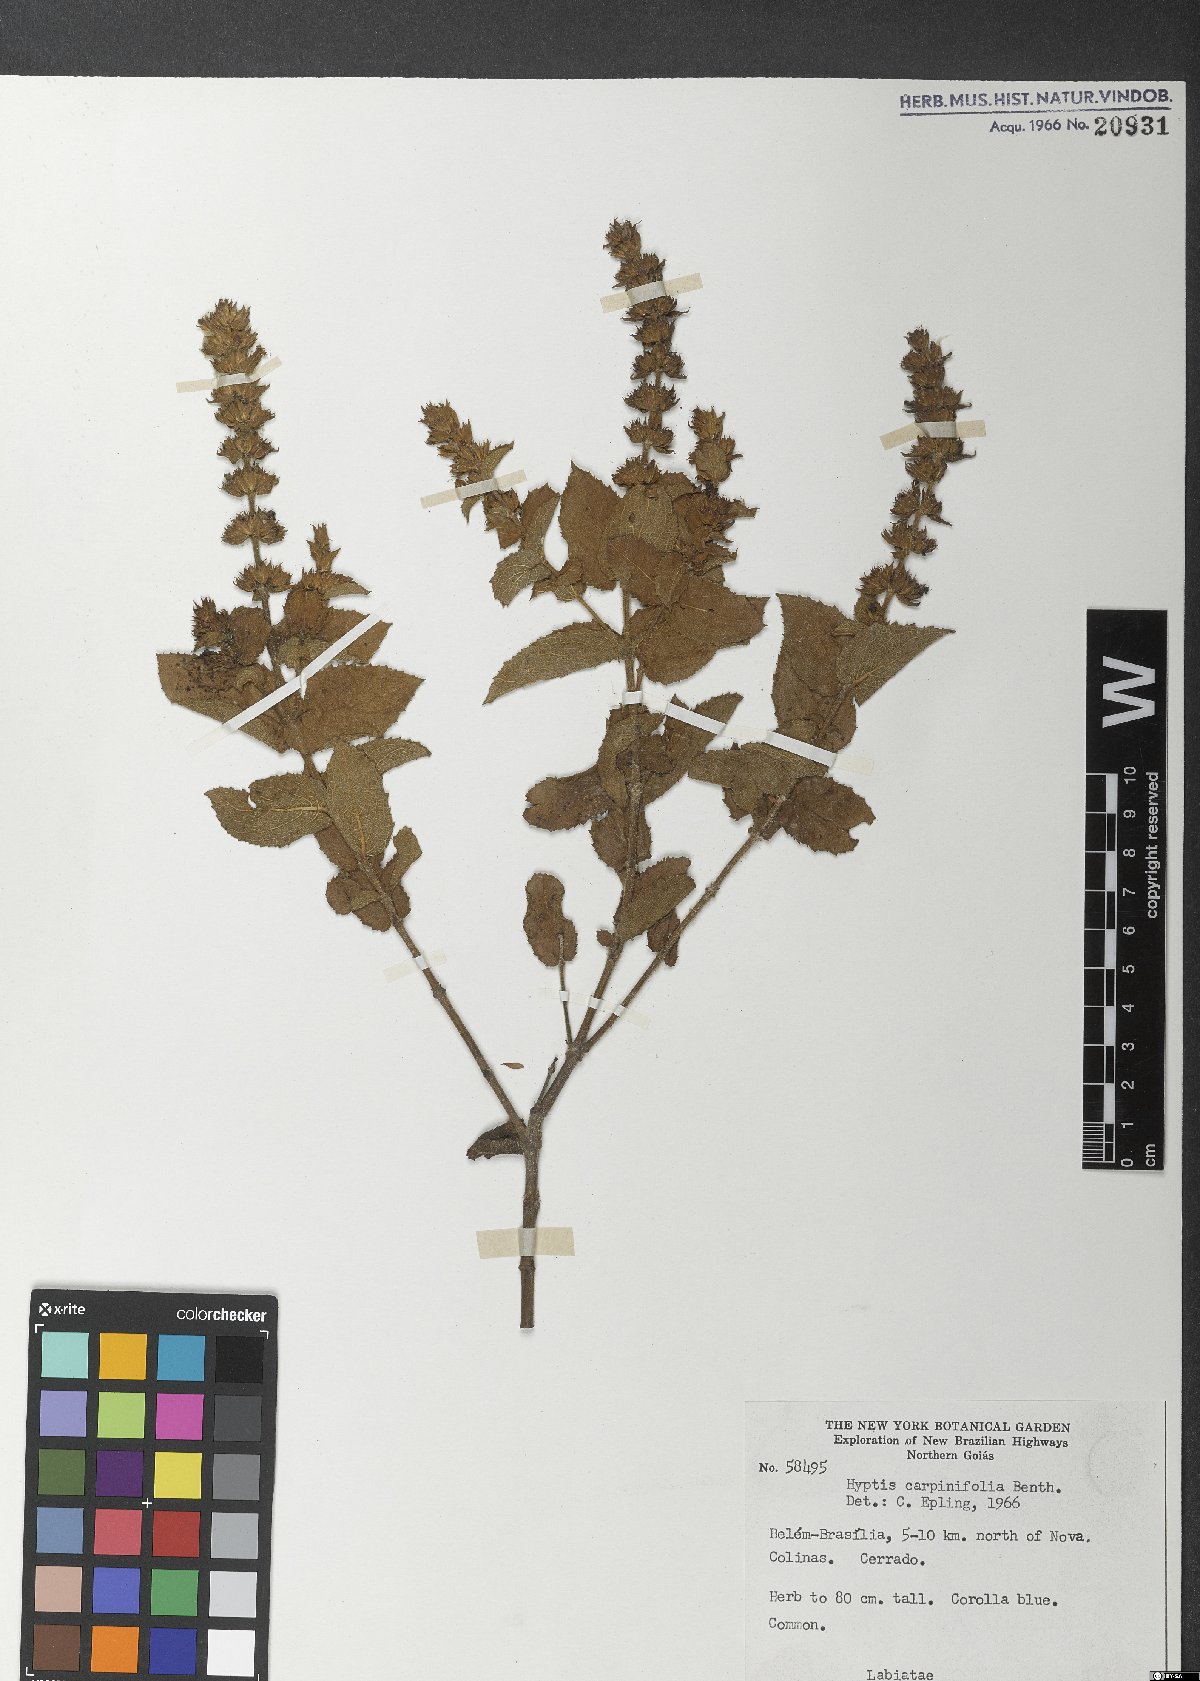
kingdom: Plantae
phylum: Tracheophyta
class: Magnoliopsida
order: Lamiales
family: Lamiaceae
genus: Cantinoa
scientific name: Cantinoa carpinifolia
